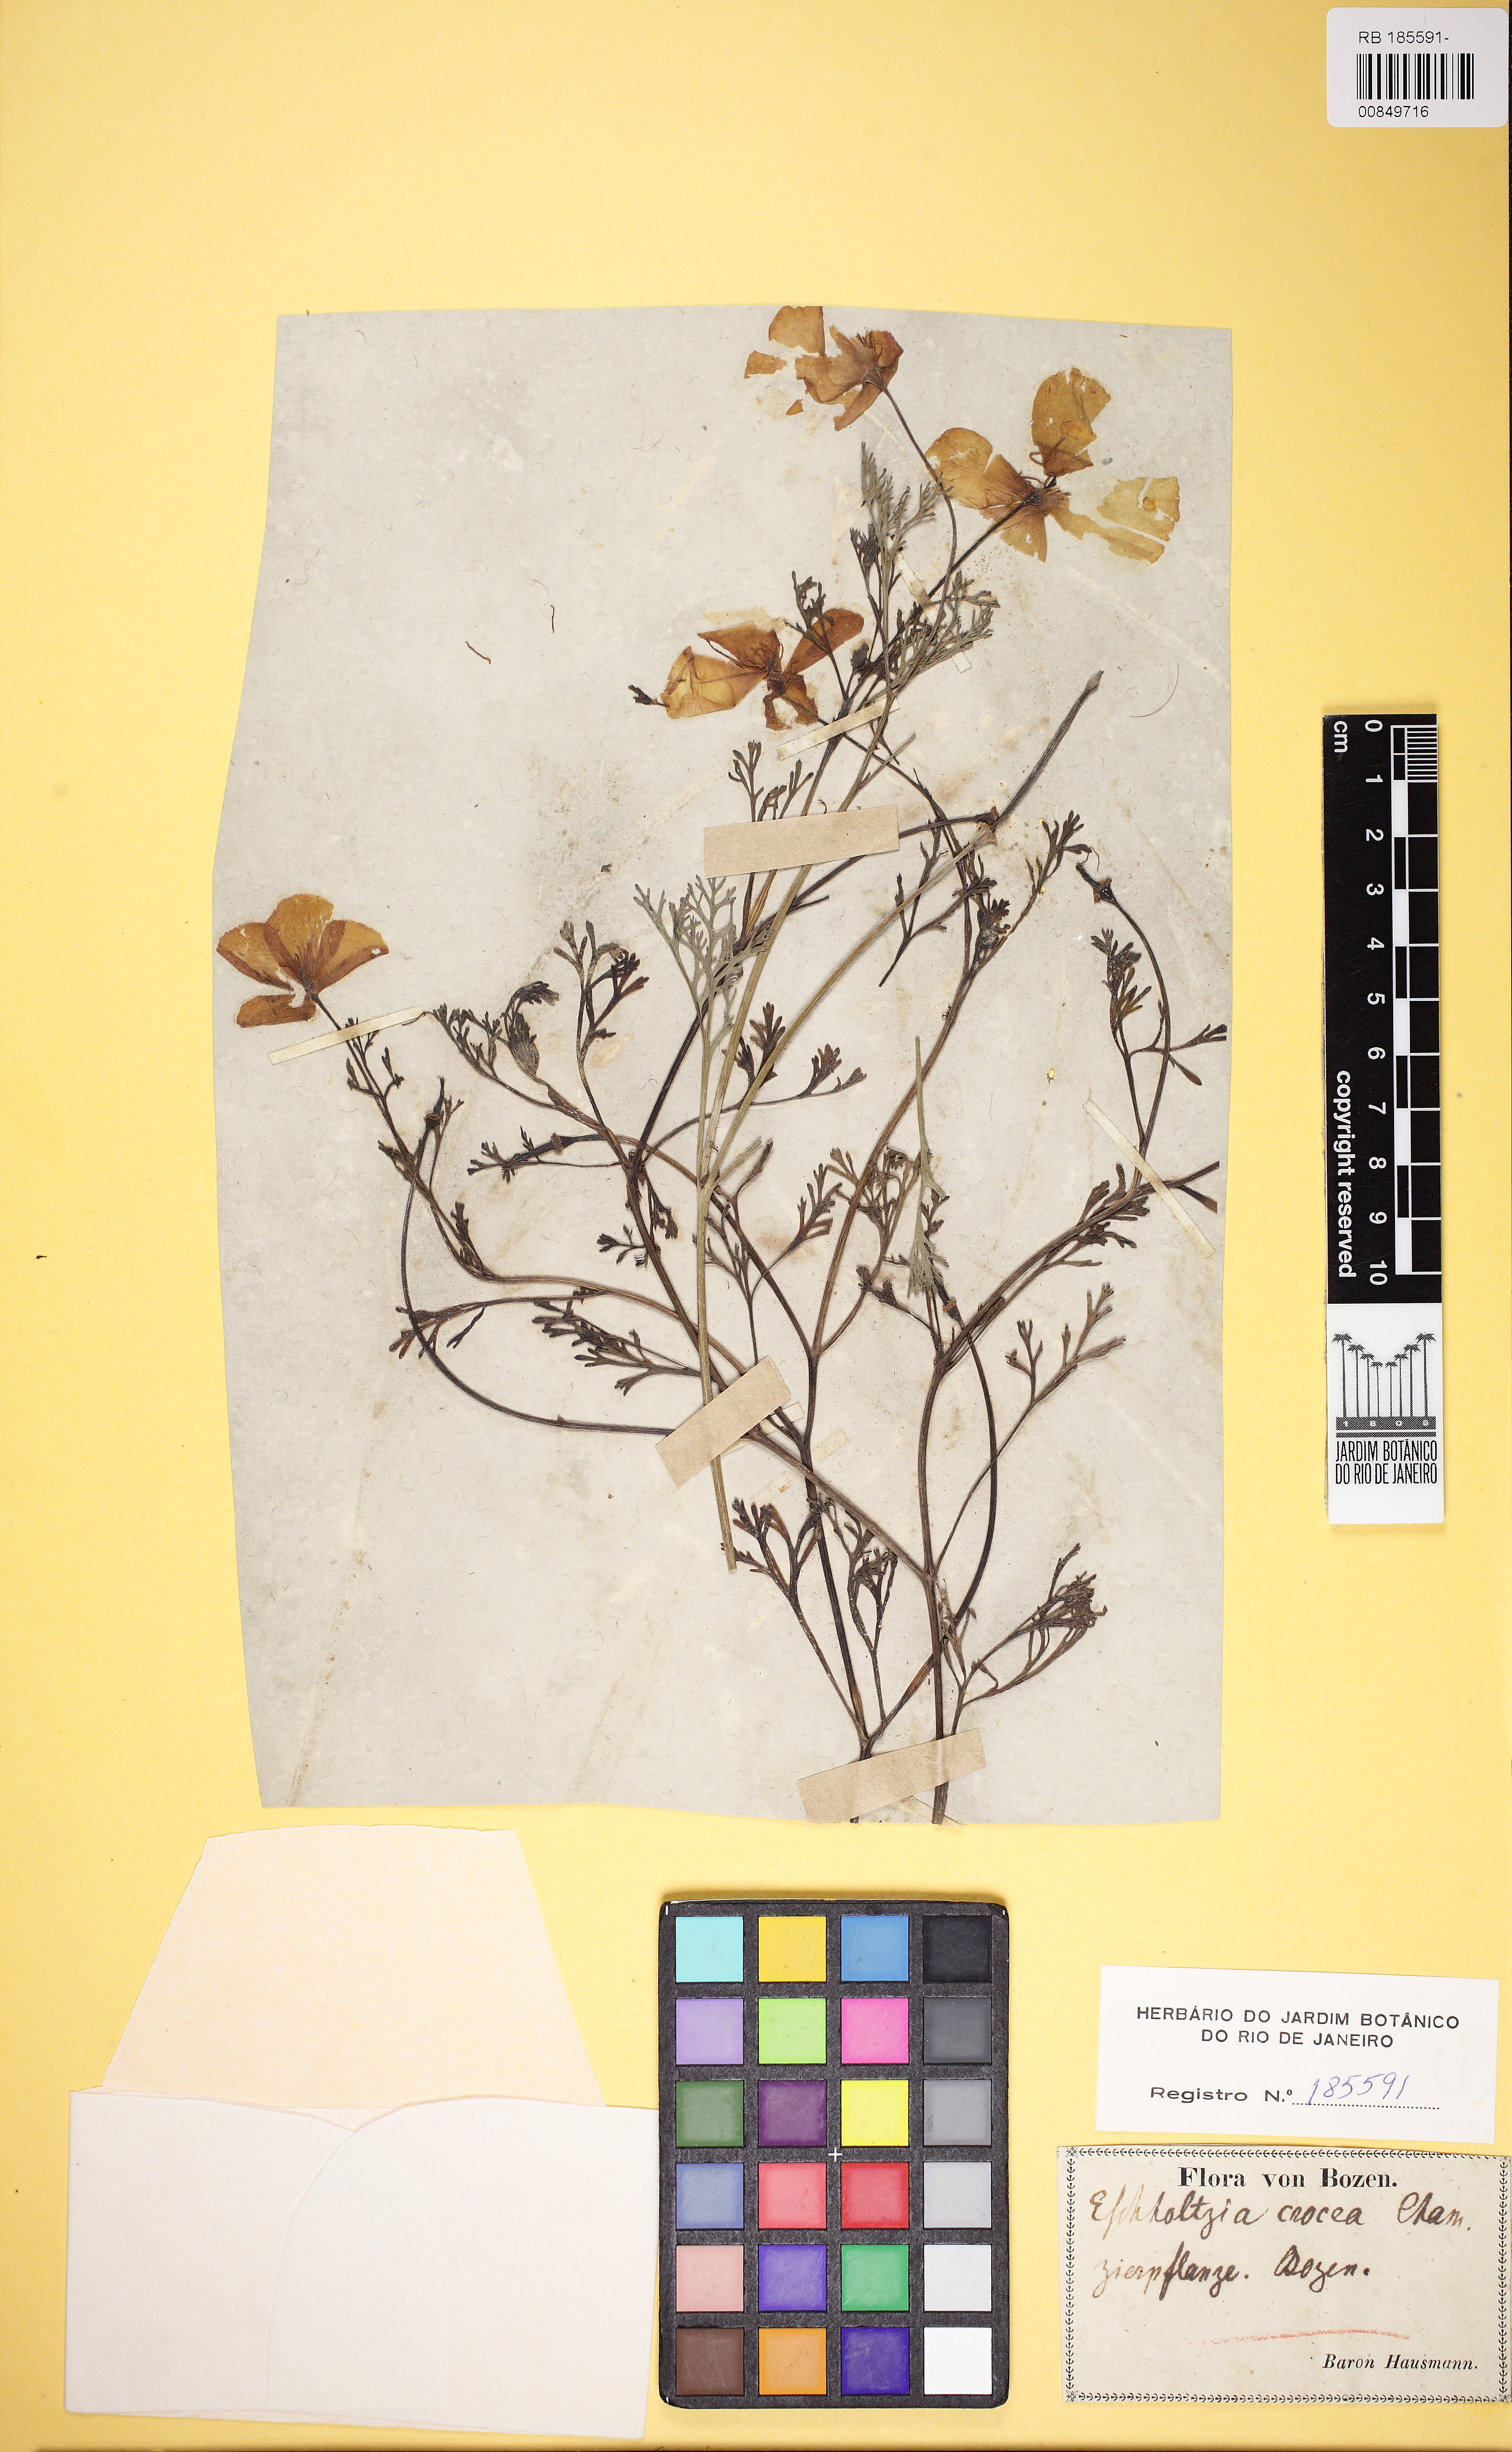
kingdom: Plantae
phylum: Tracheophyta
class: Magnoliopsida
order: Ranunculales
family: Papaveraceae
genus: Eschscholzia
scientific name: Eschscholzia californica
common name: California poppy
